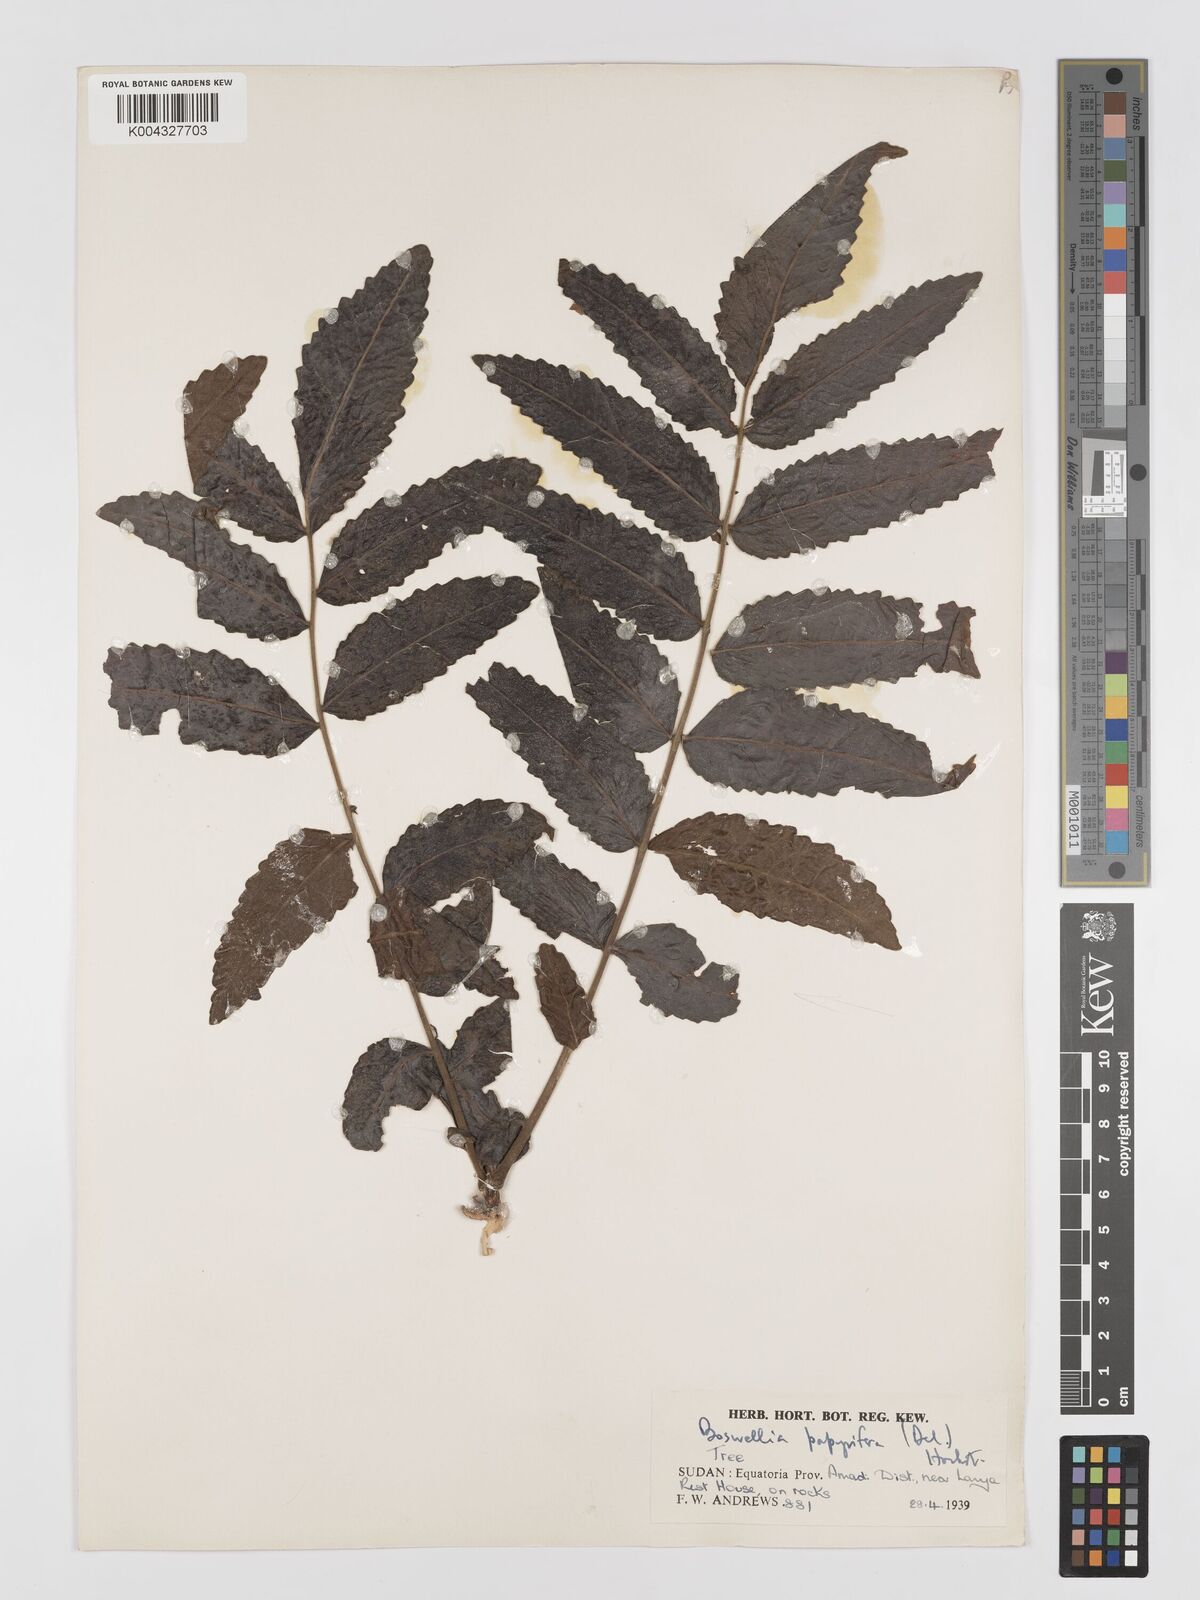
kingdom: Plantae
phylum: Tracheophyta
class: Magnoliopsida
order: Sapindales
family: Burseraceae
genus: Boswellia
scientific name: Boswellia papyrifera
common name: Sudanese frankincense
